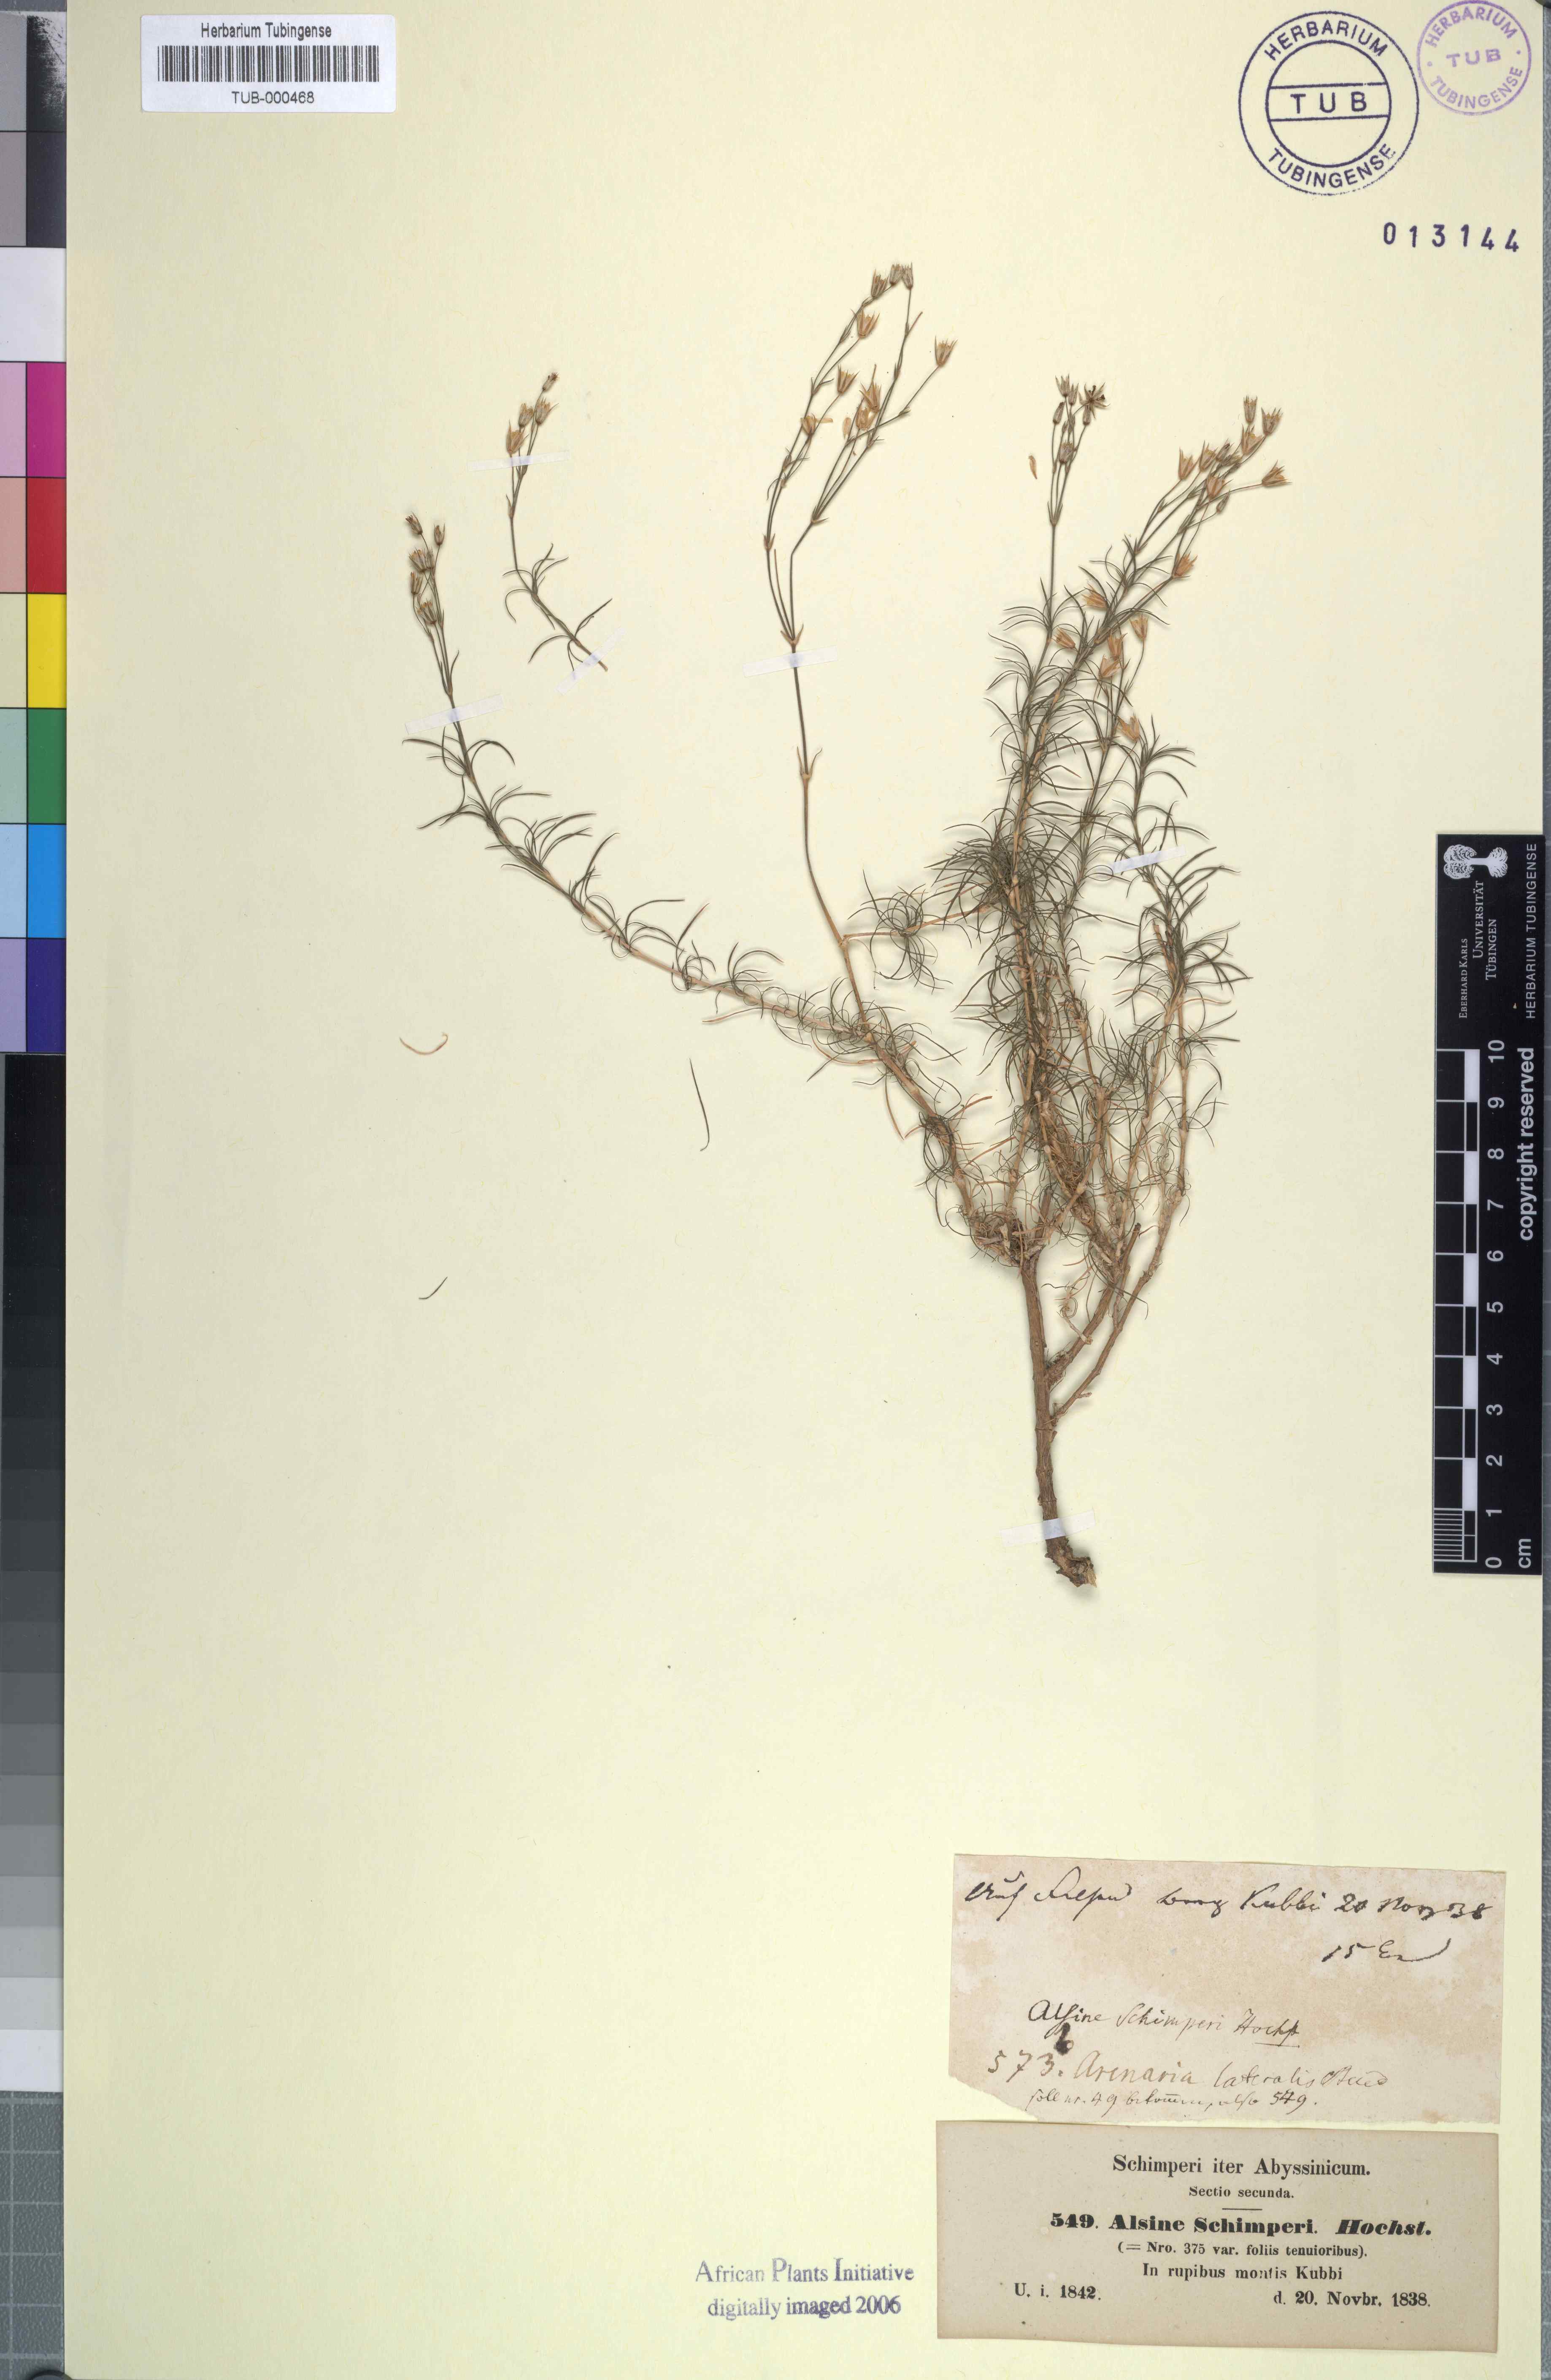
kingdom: Plantae
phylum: Tracheophyta
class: Magnoliopsida
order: Caryophyllales
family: Caryophyllaceae
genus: Minuartia
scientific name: Minuartia filifolia
